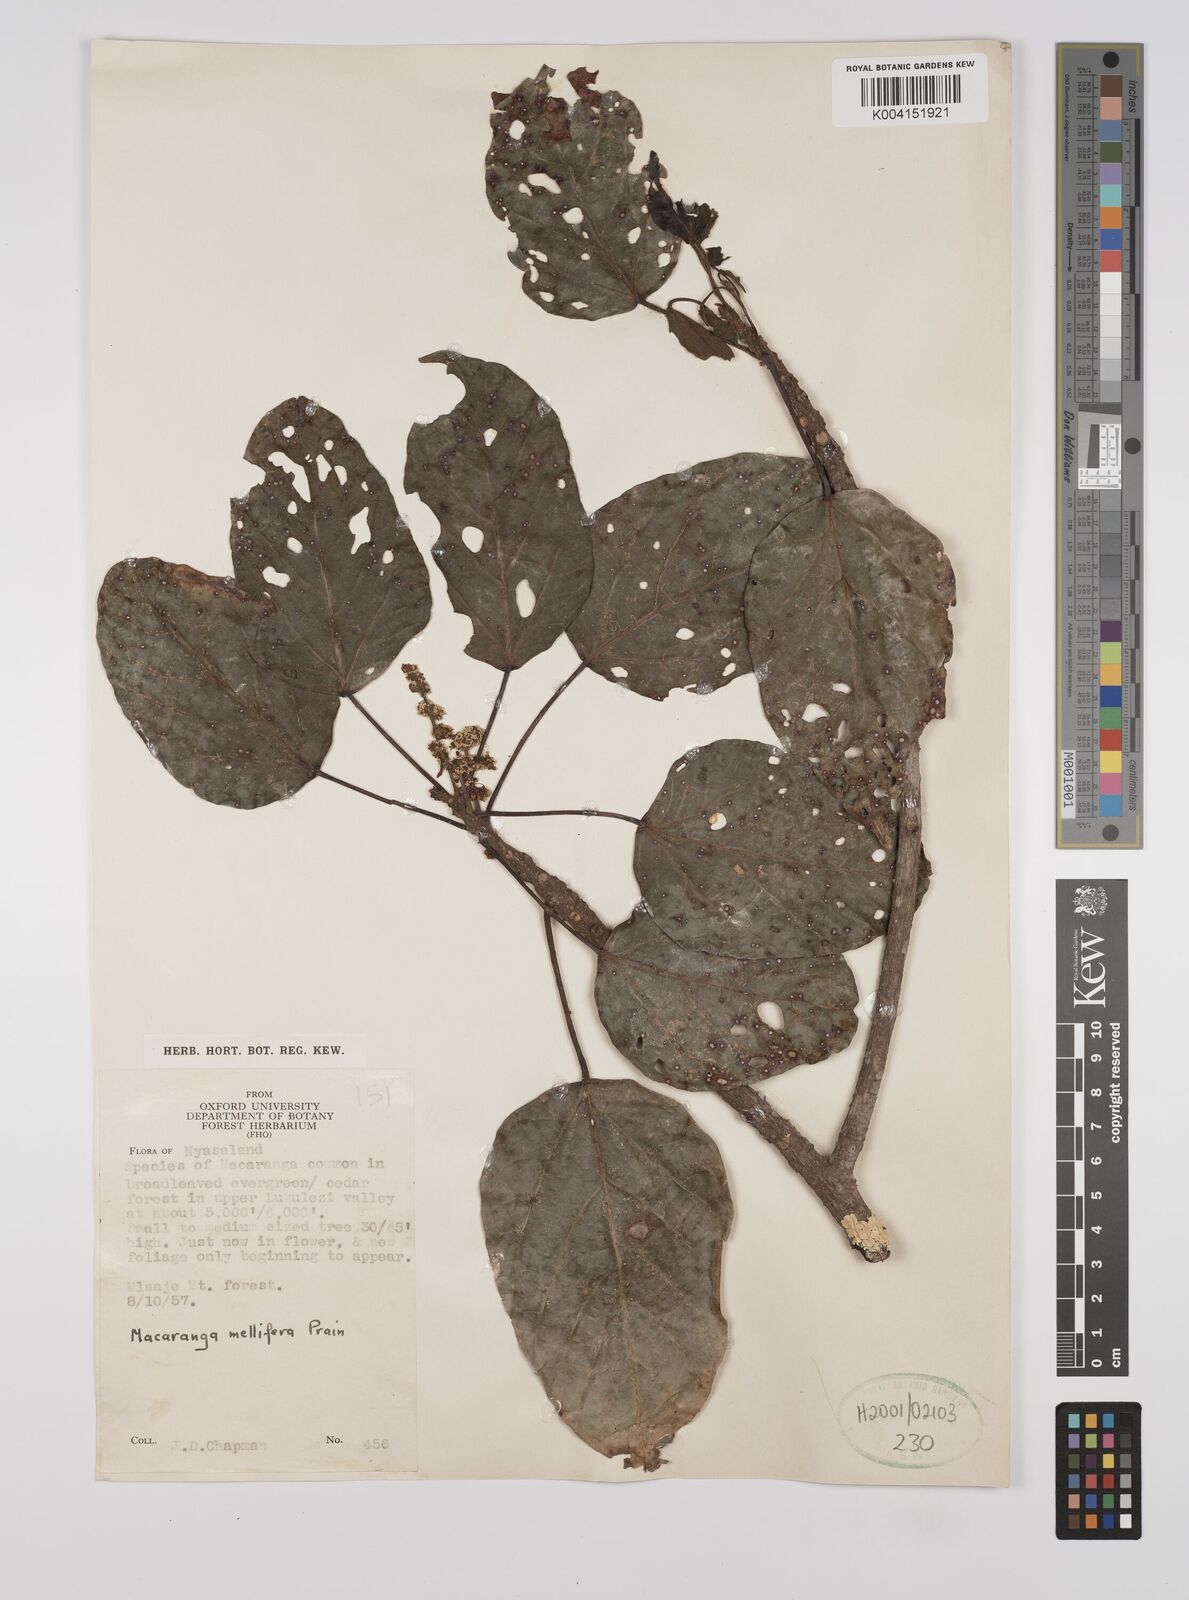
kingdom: Plantae
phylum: Tracheophyta
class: Magnoliopsida
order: Malpighiales
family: Euphorbiaceae
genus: Macaranga
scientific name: Macaranga mellifera
